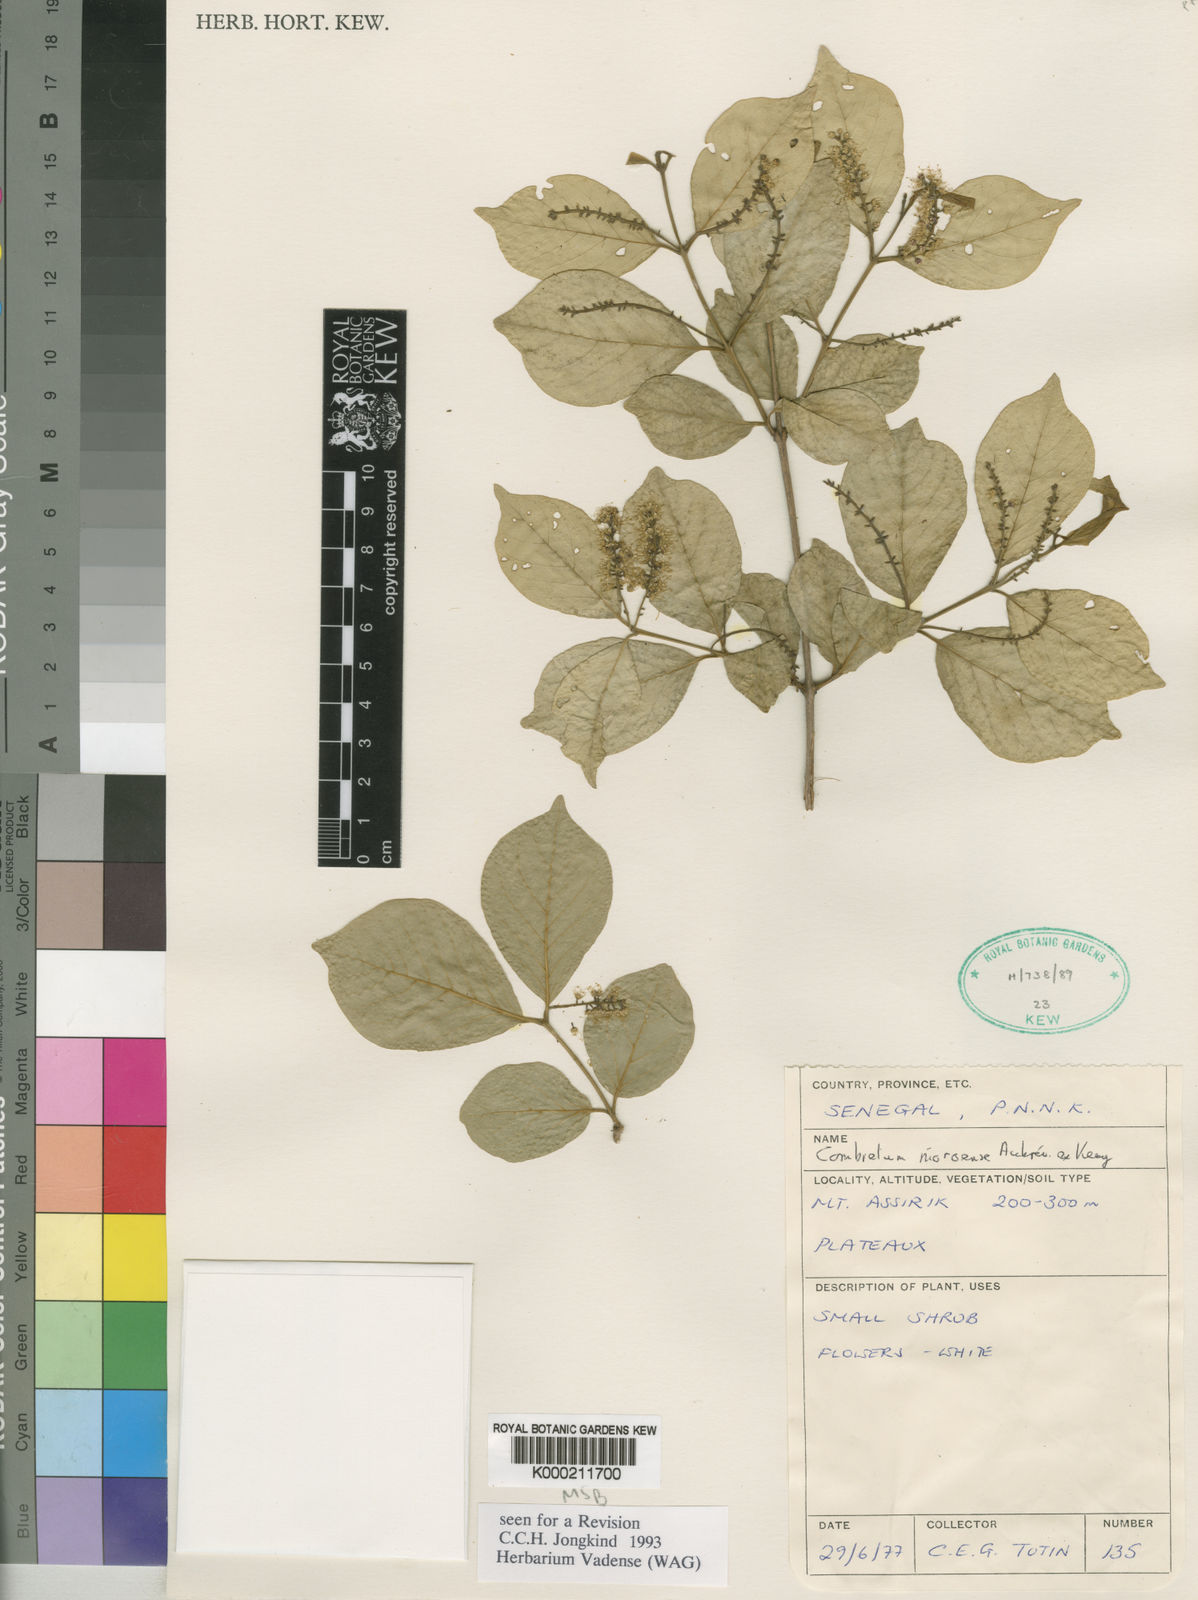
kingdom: Plantae
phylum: Tracheophyta
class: Magnoliopsida
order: Myrtales
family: Combretaceae
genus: Combretum
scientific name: Combretum
